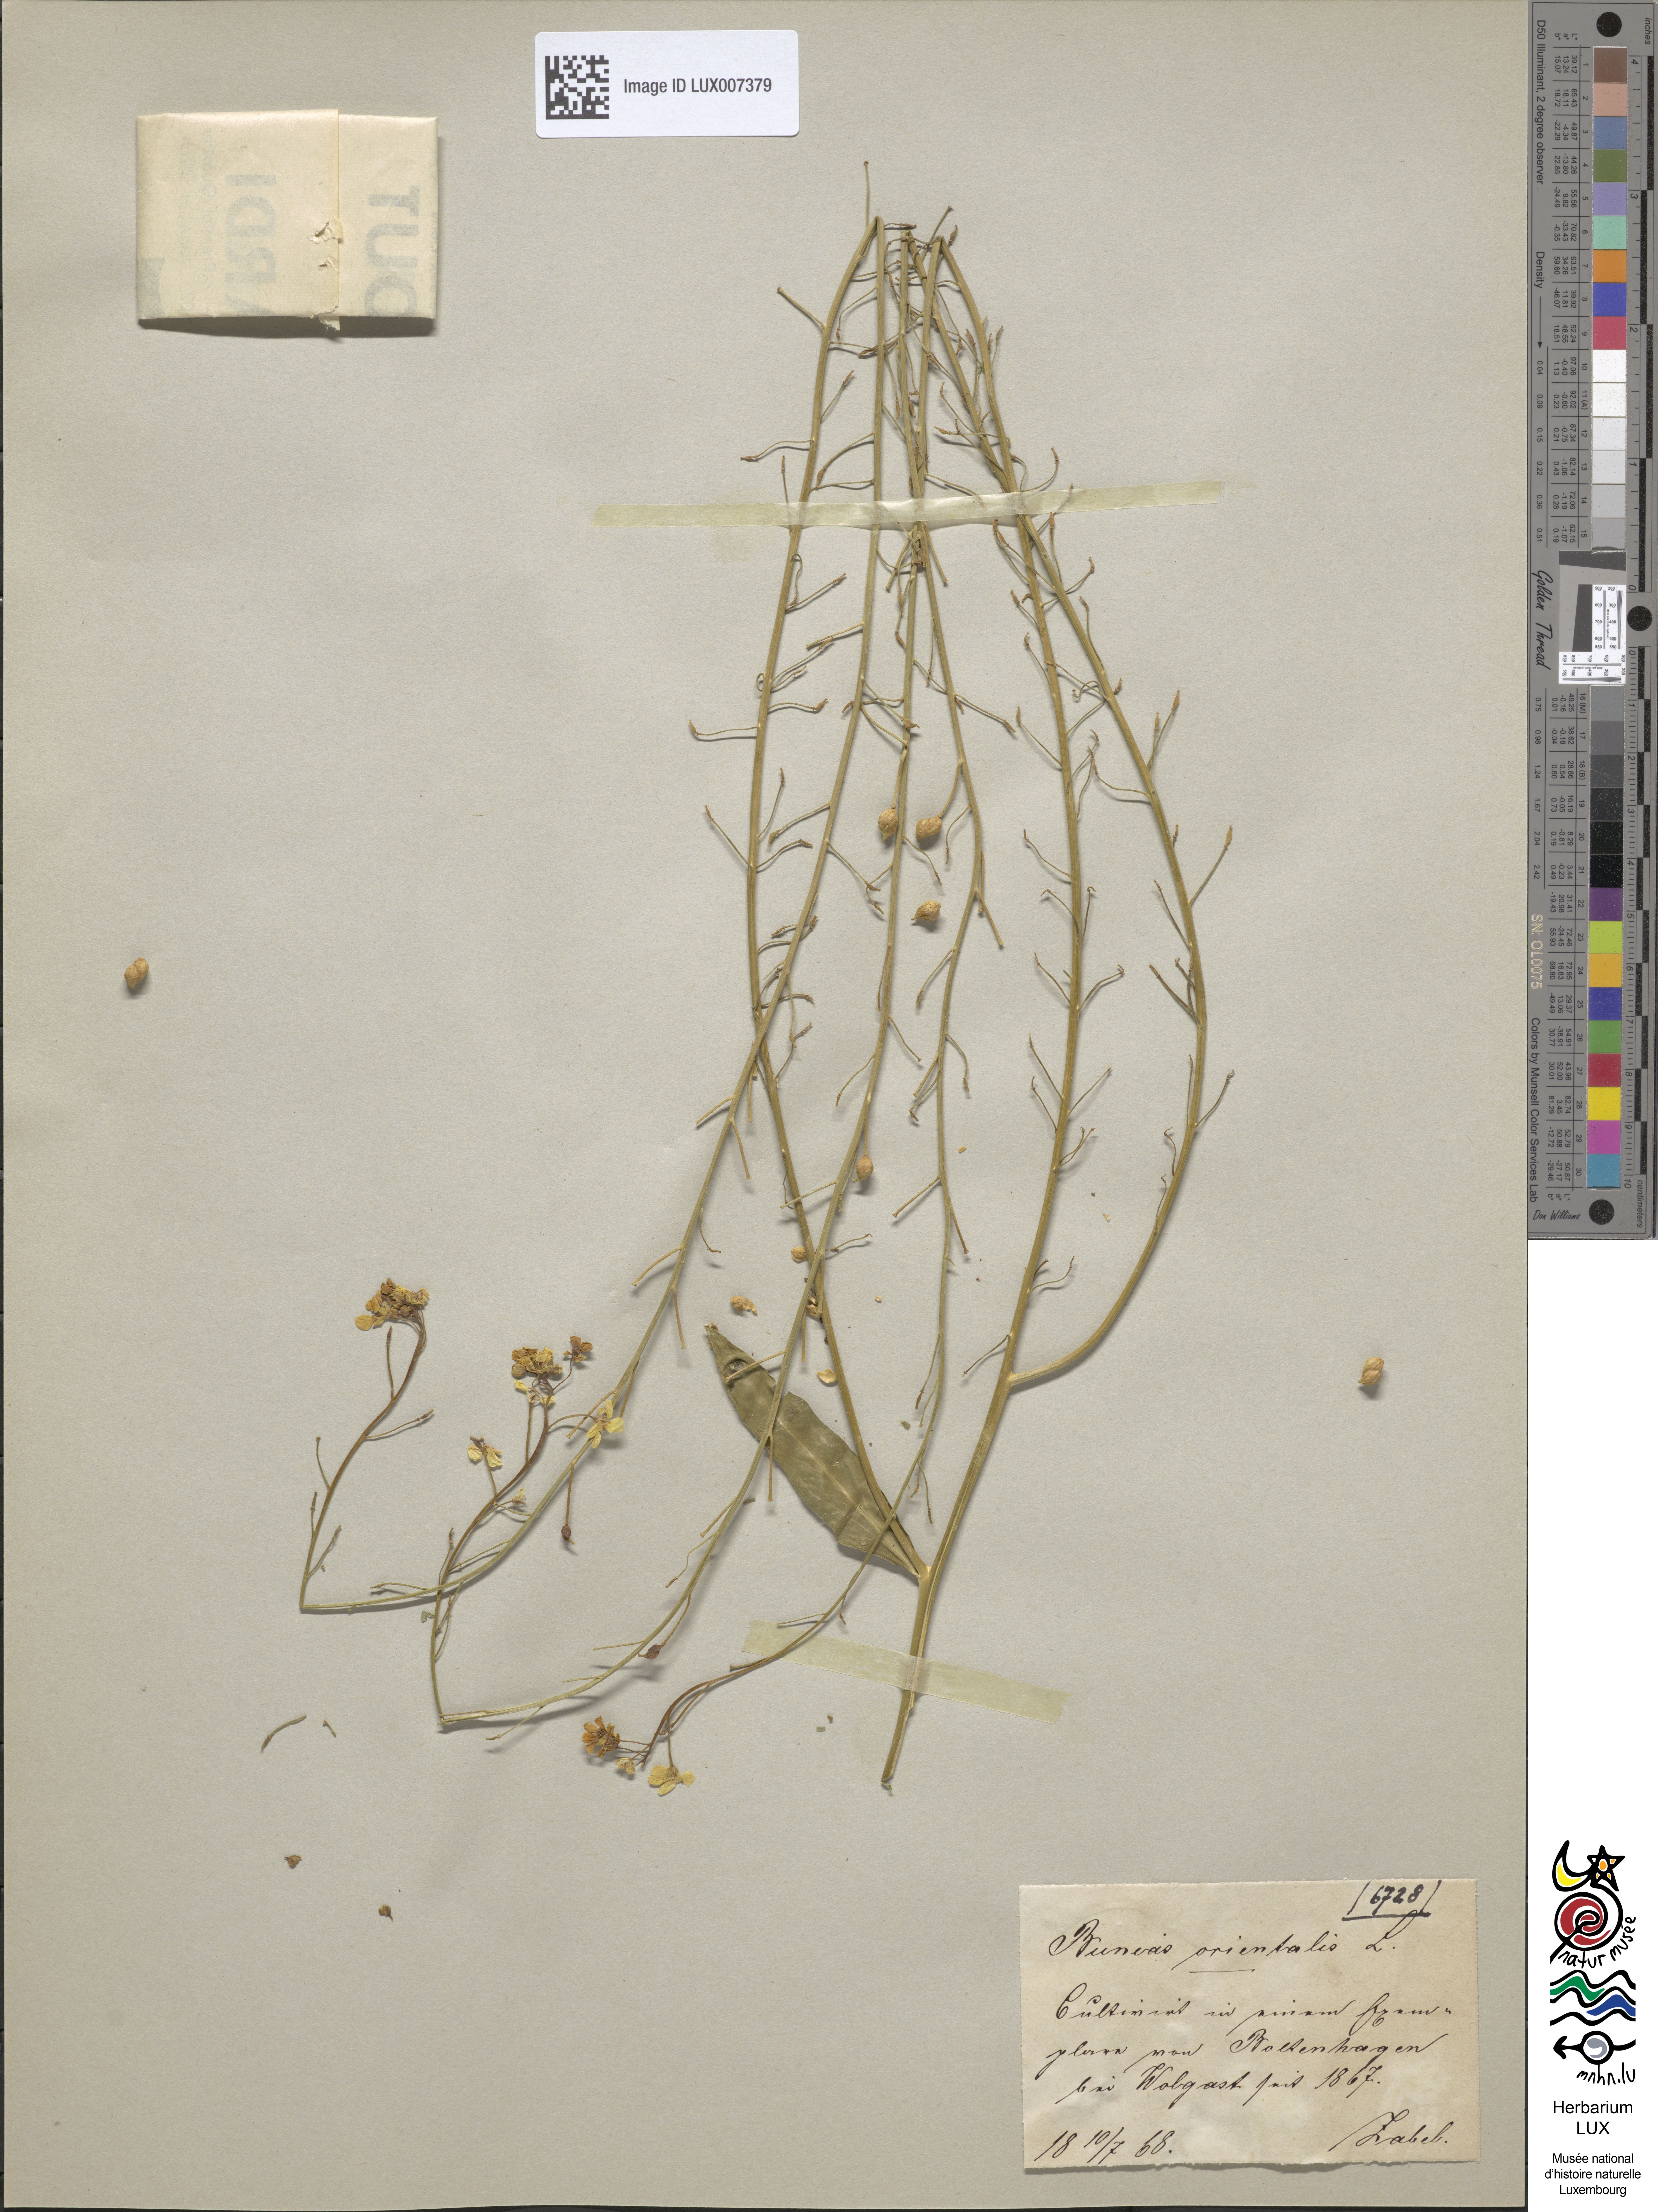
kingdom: Plantae
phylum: Tracheophyta
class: Magnoliopsida
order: Brassicales
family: Brassicaceae
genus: Bunias
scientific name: Bunias orientalis
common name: Warty-cabbage
